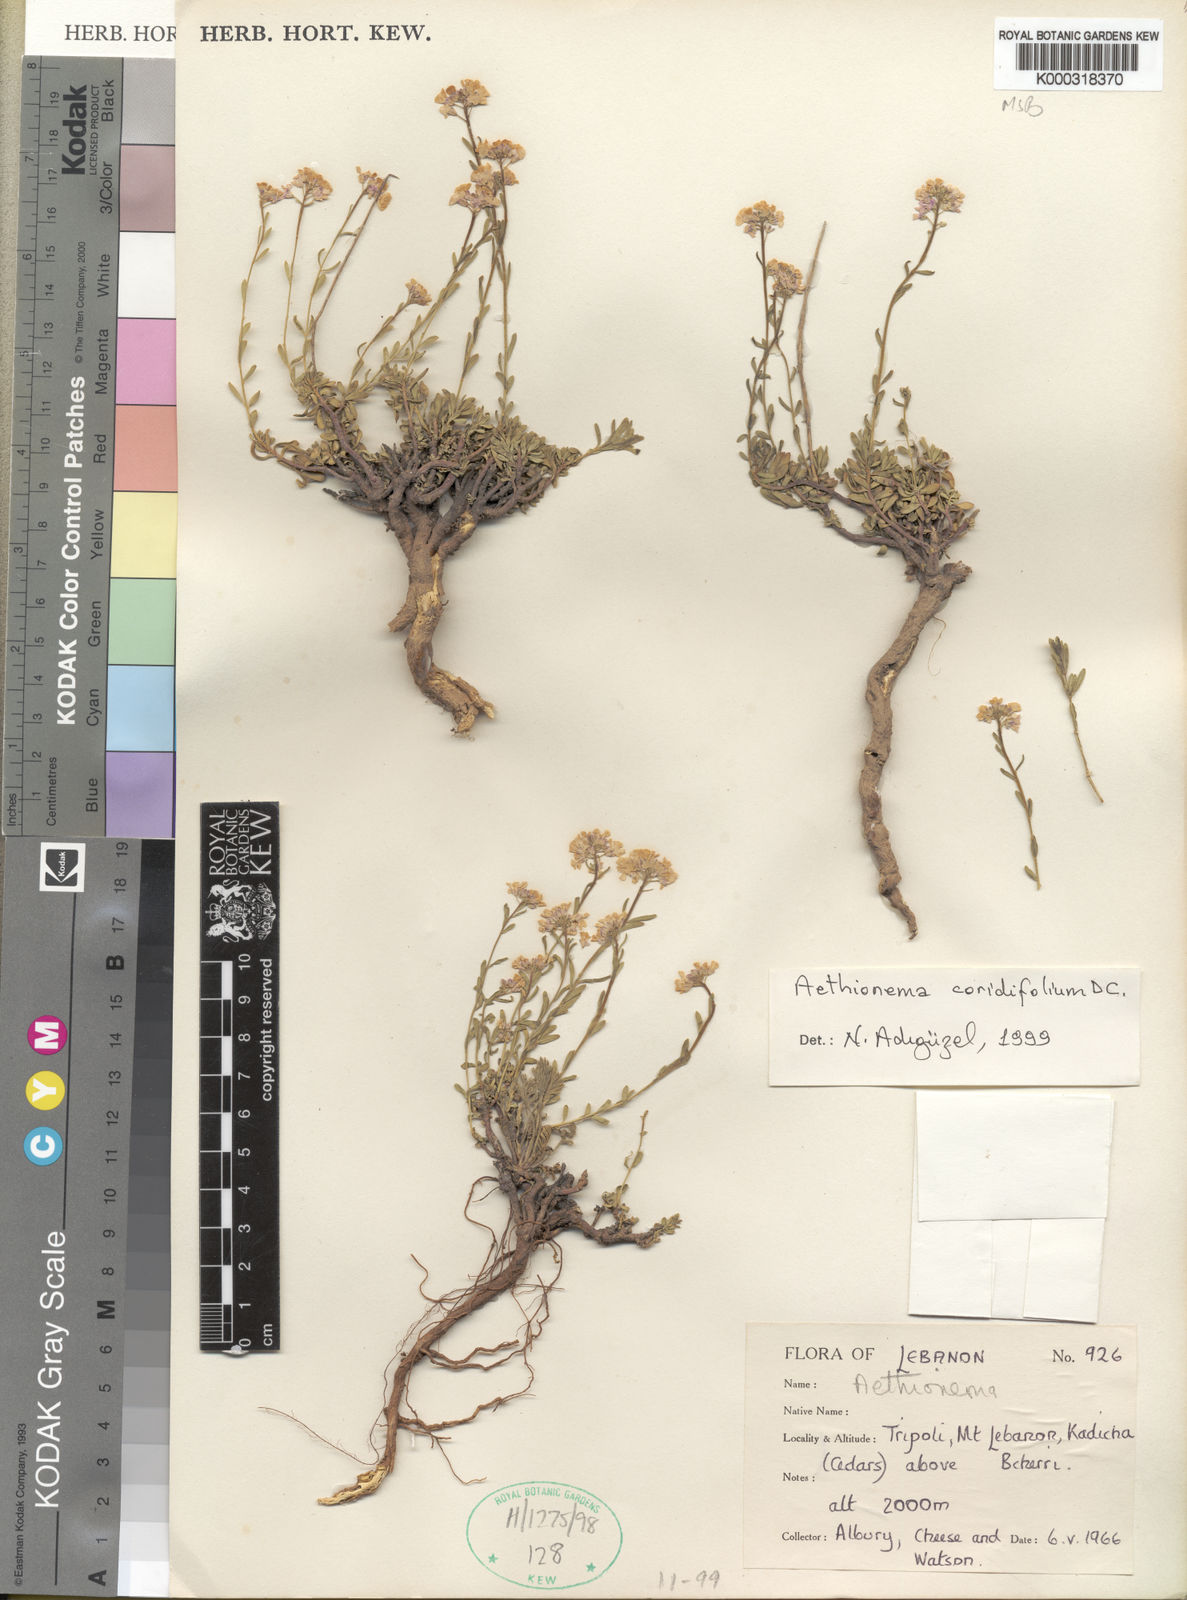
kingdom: Plantae
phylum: Tracheophyta
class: Magnoliopsida
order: Brassicales
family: Brassicaceae
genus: Aethionema
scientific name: Aethionema coridifolium
